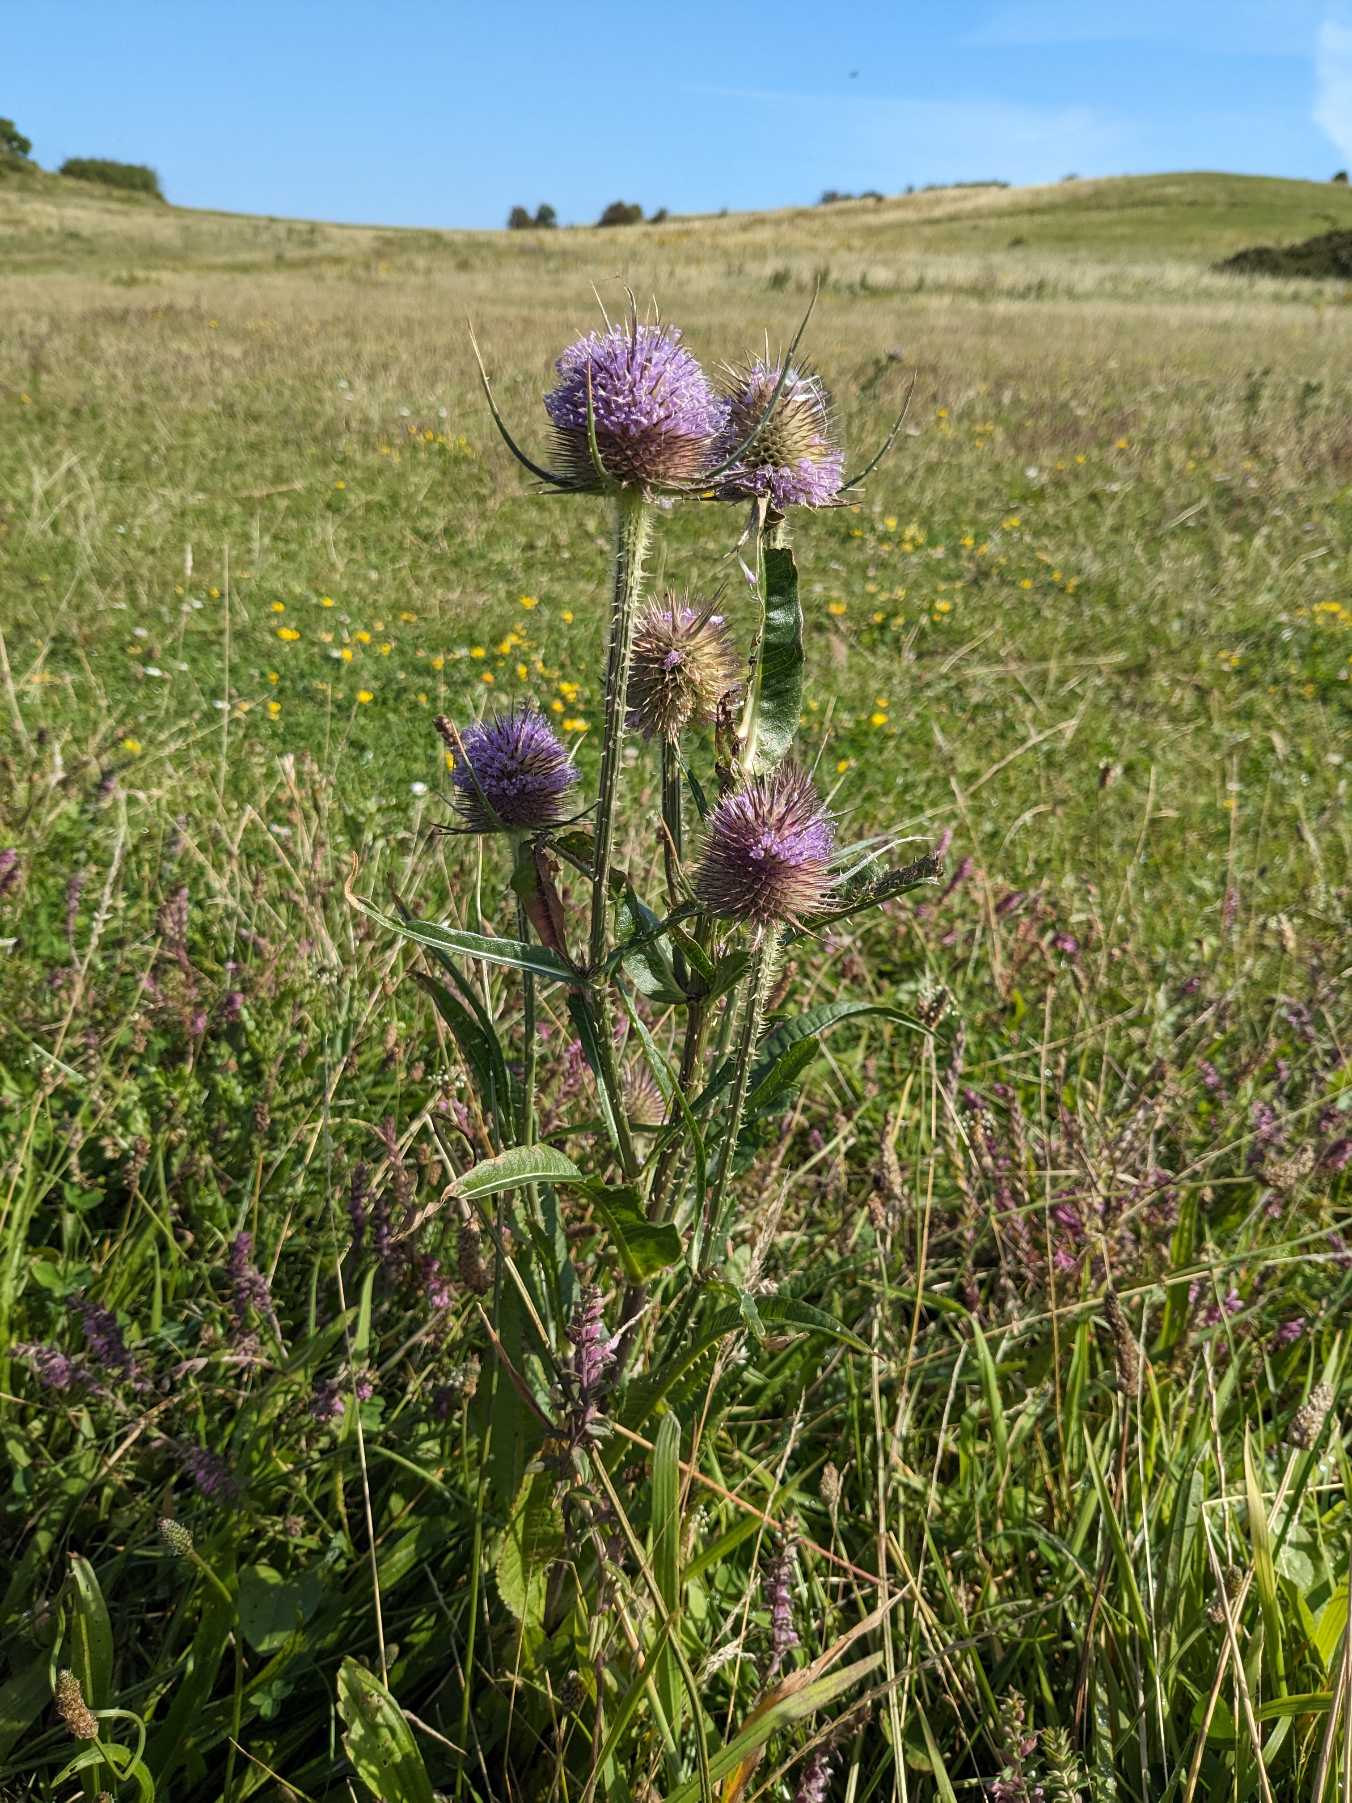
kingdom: Plantae
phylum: Tracheophyta
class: Magnoliopsida
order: Dipsacales
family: Caprifoliaceae
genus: Dipsacus
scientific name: Dipsacus fullonum
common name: Gærde-kartebolle
